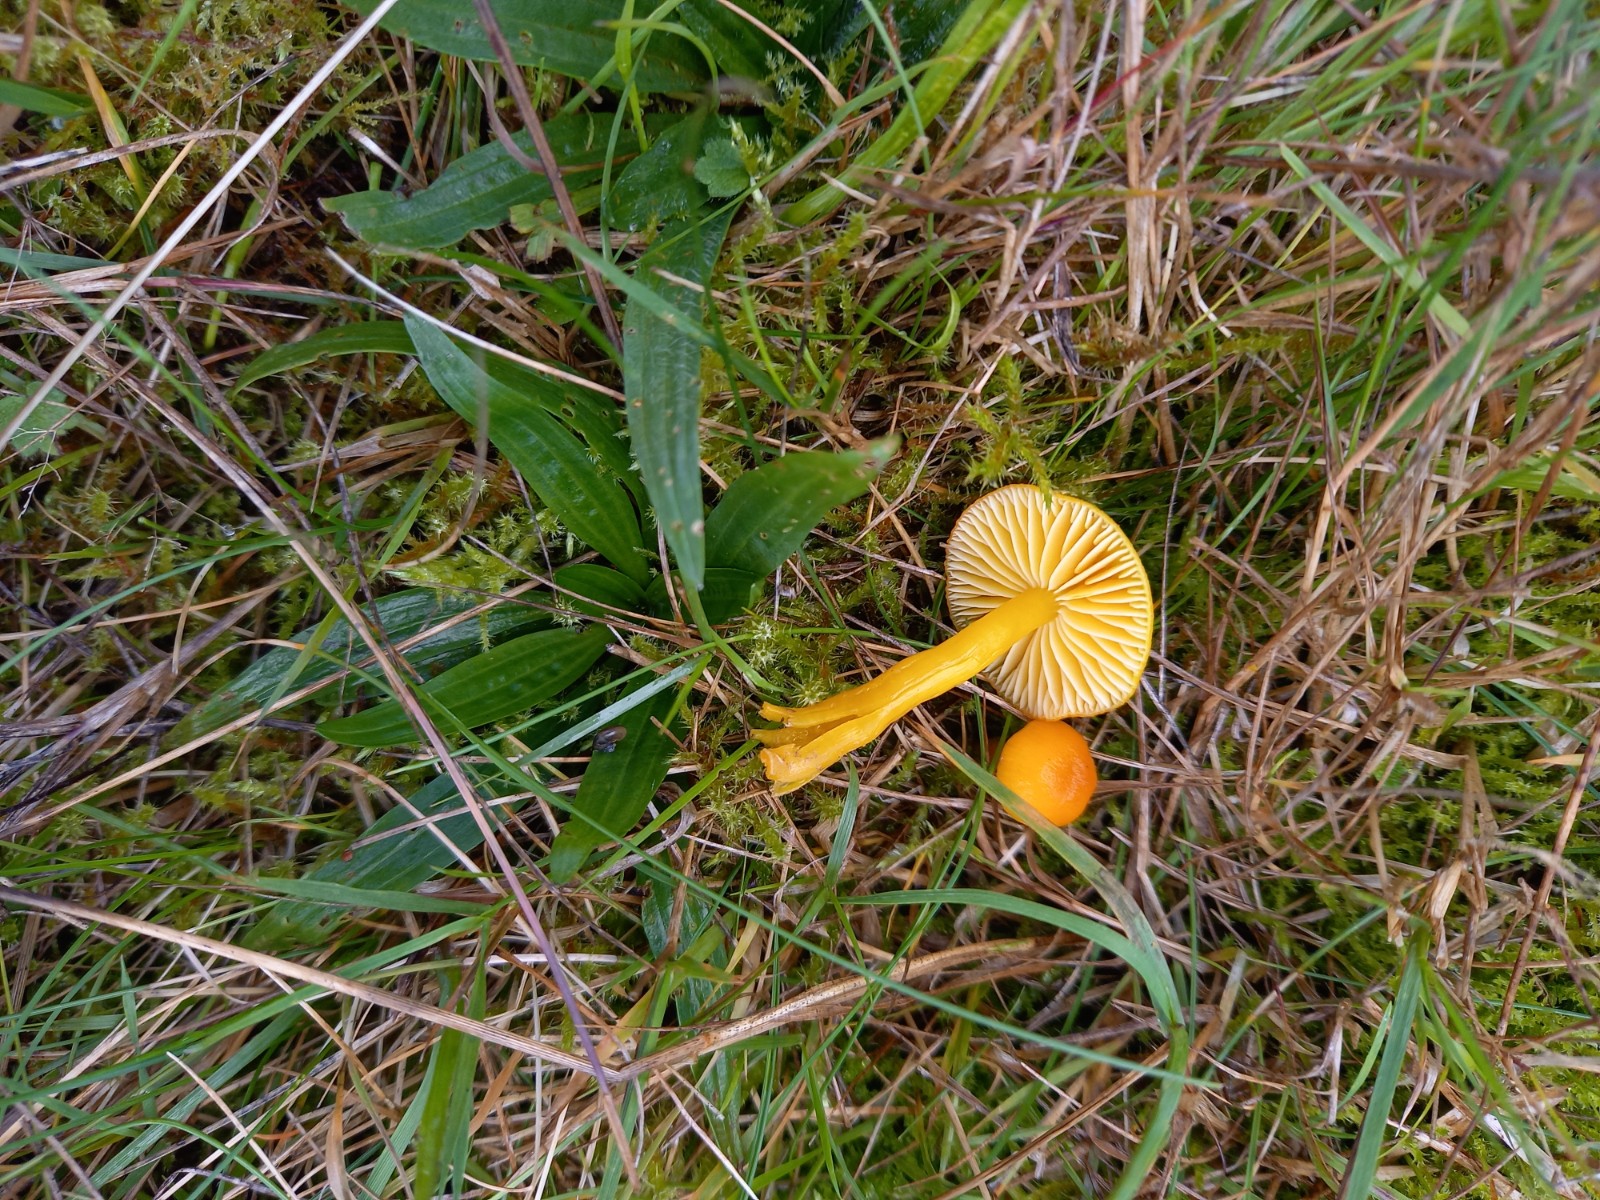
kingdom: Fungi
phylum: Basidiomycota
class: Agaricomycetes
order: Agaricales
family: Hygrophoraceae
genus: Hygrocybe
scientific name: Hygrocybe ceracea
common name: voksgul vokshat
